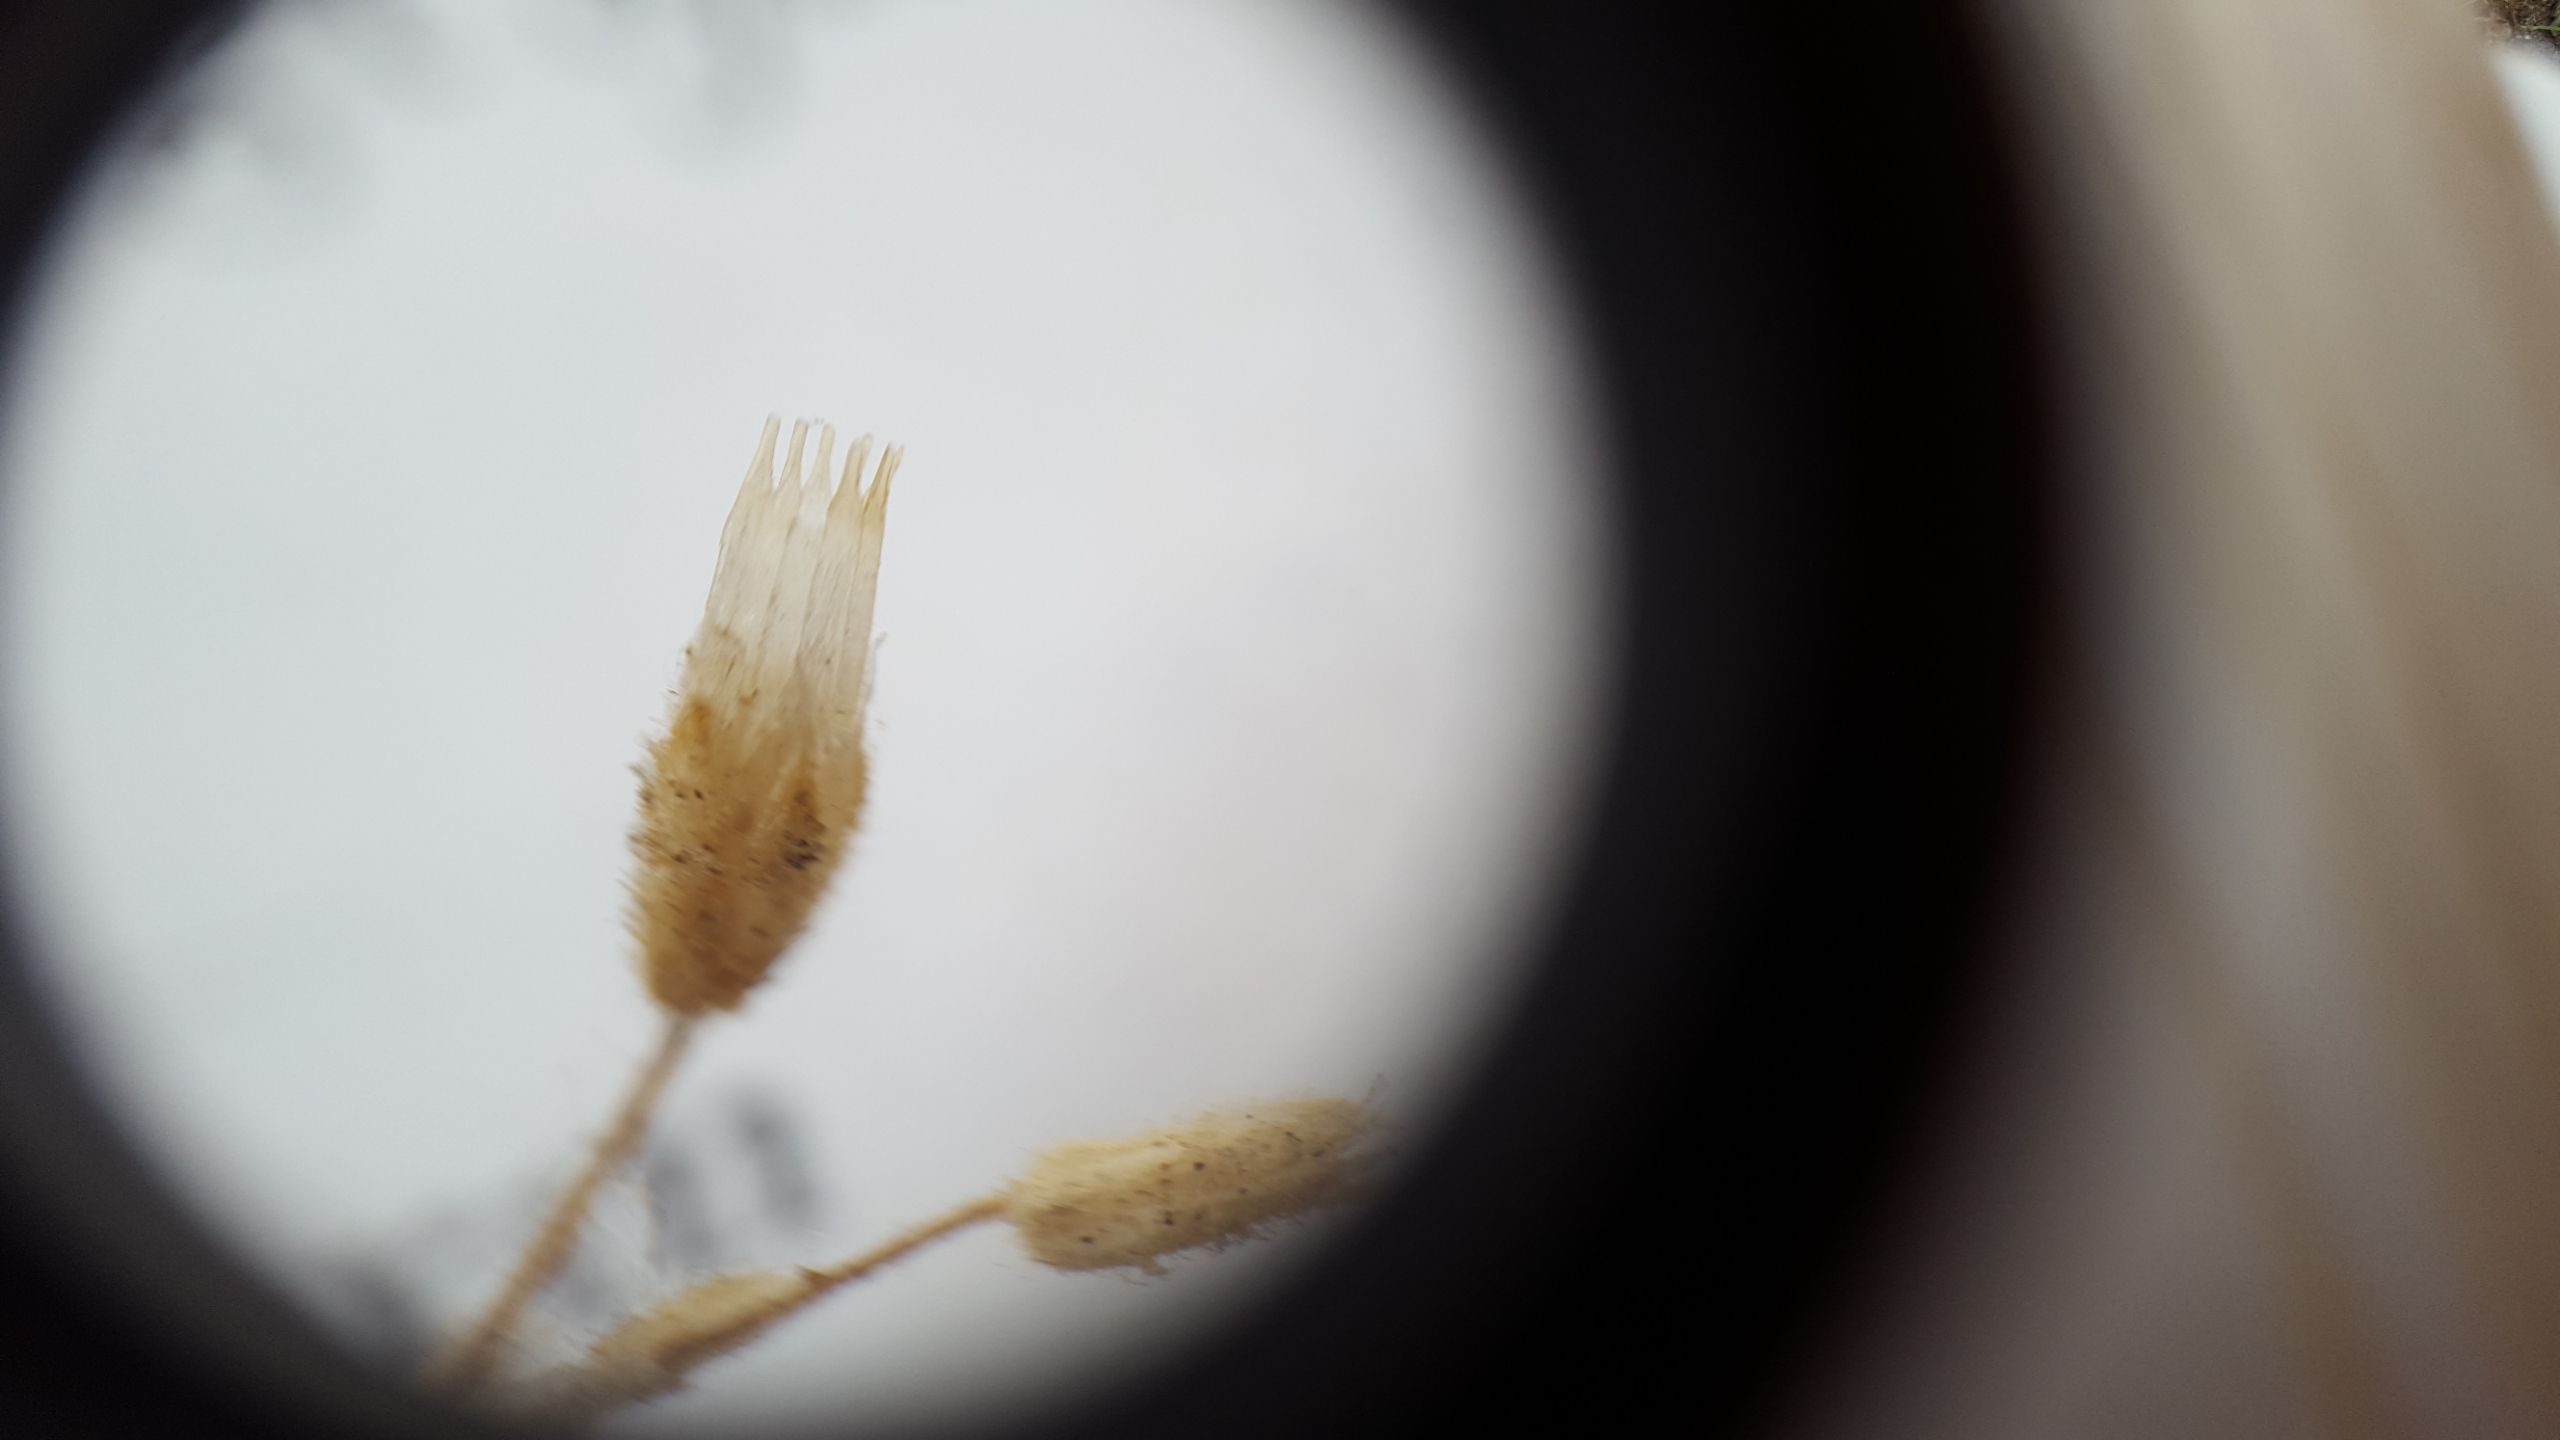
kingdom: Plantae
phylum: Tracheophyta
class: Magnoliopsida
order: Caryophyllales
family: Caryophyllaceae
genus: Cerastium
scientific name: Cerastium glutinosum
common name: Klæbrig hønsetarm
